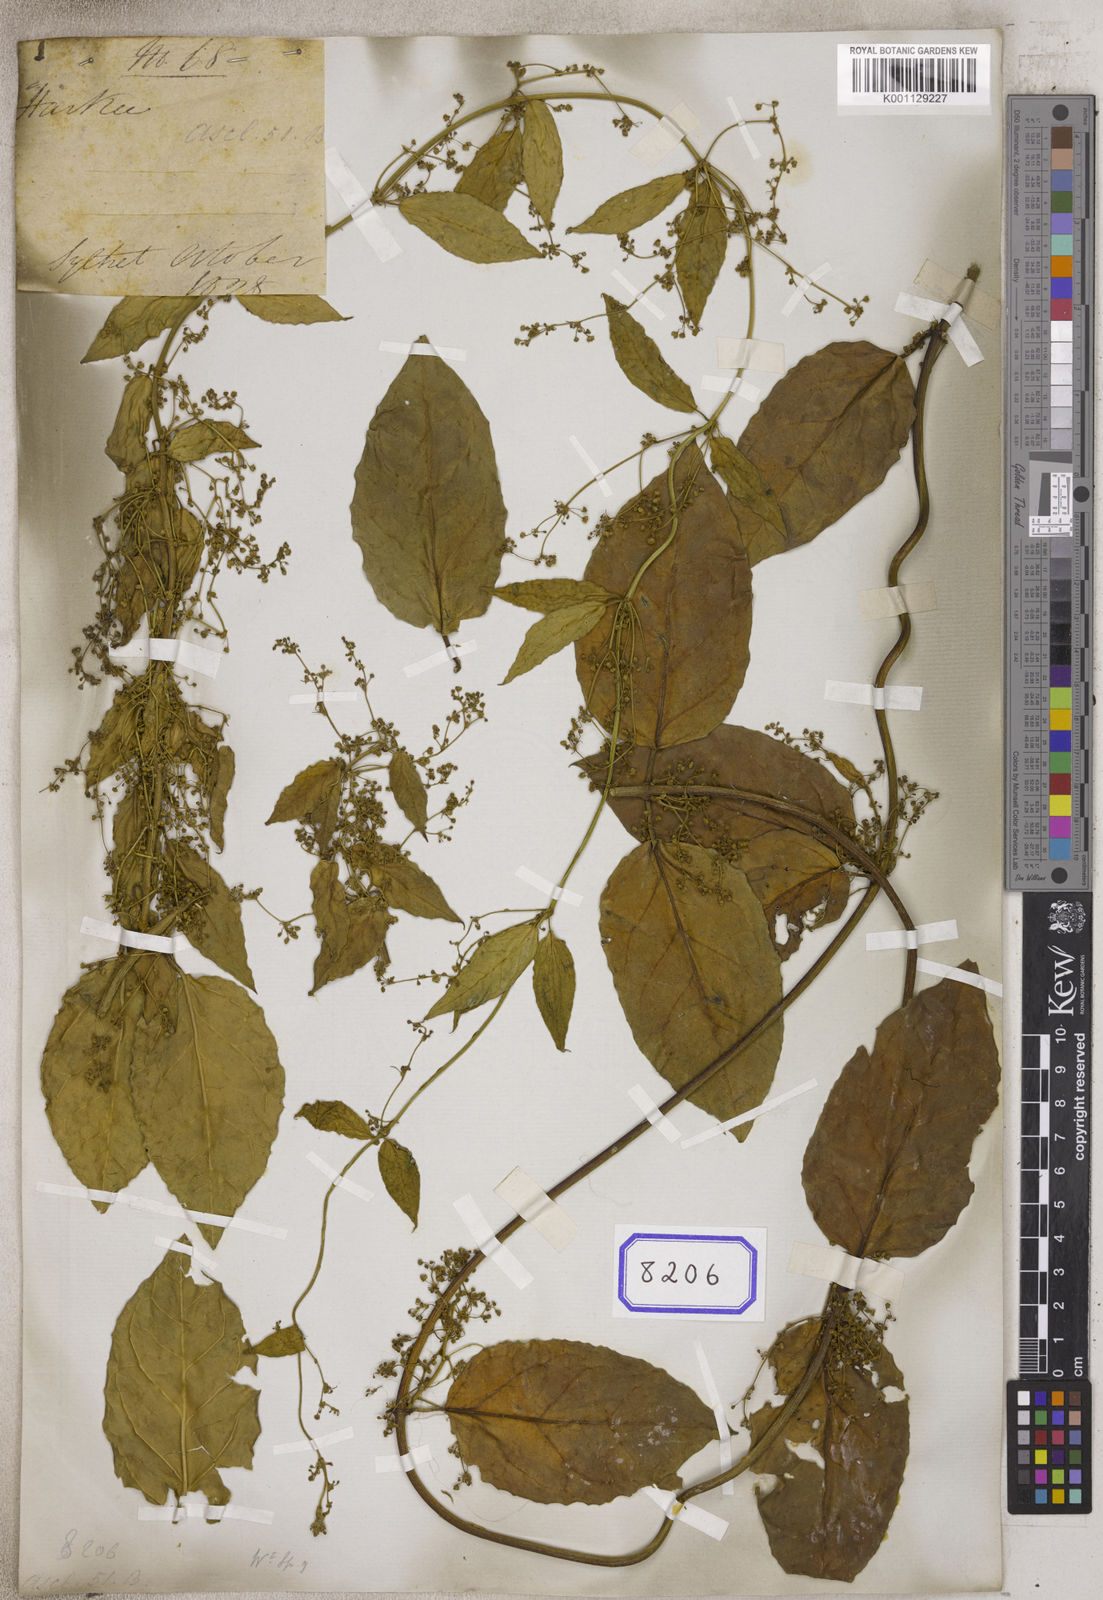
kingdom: Plantae
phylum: Tracheophyta
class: Magnoliopsida
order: Gentianales
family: Apocynaceae
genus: Vincetoxicum
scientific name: Vincetoxicum exile
